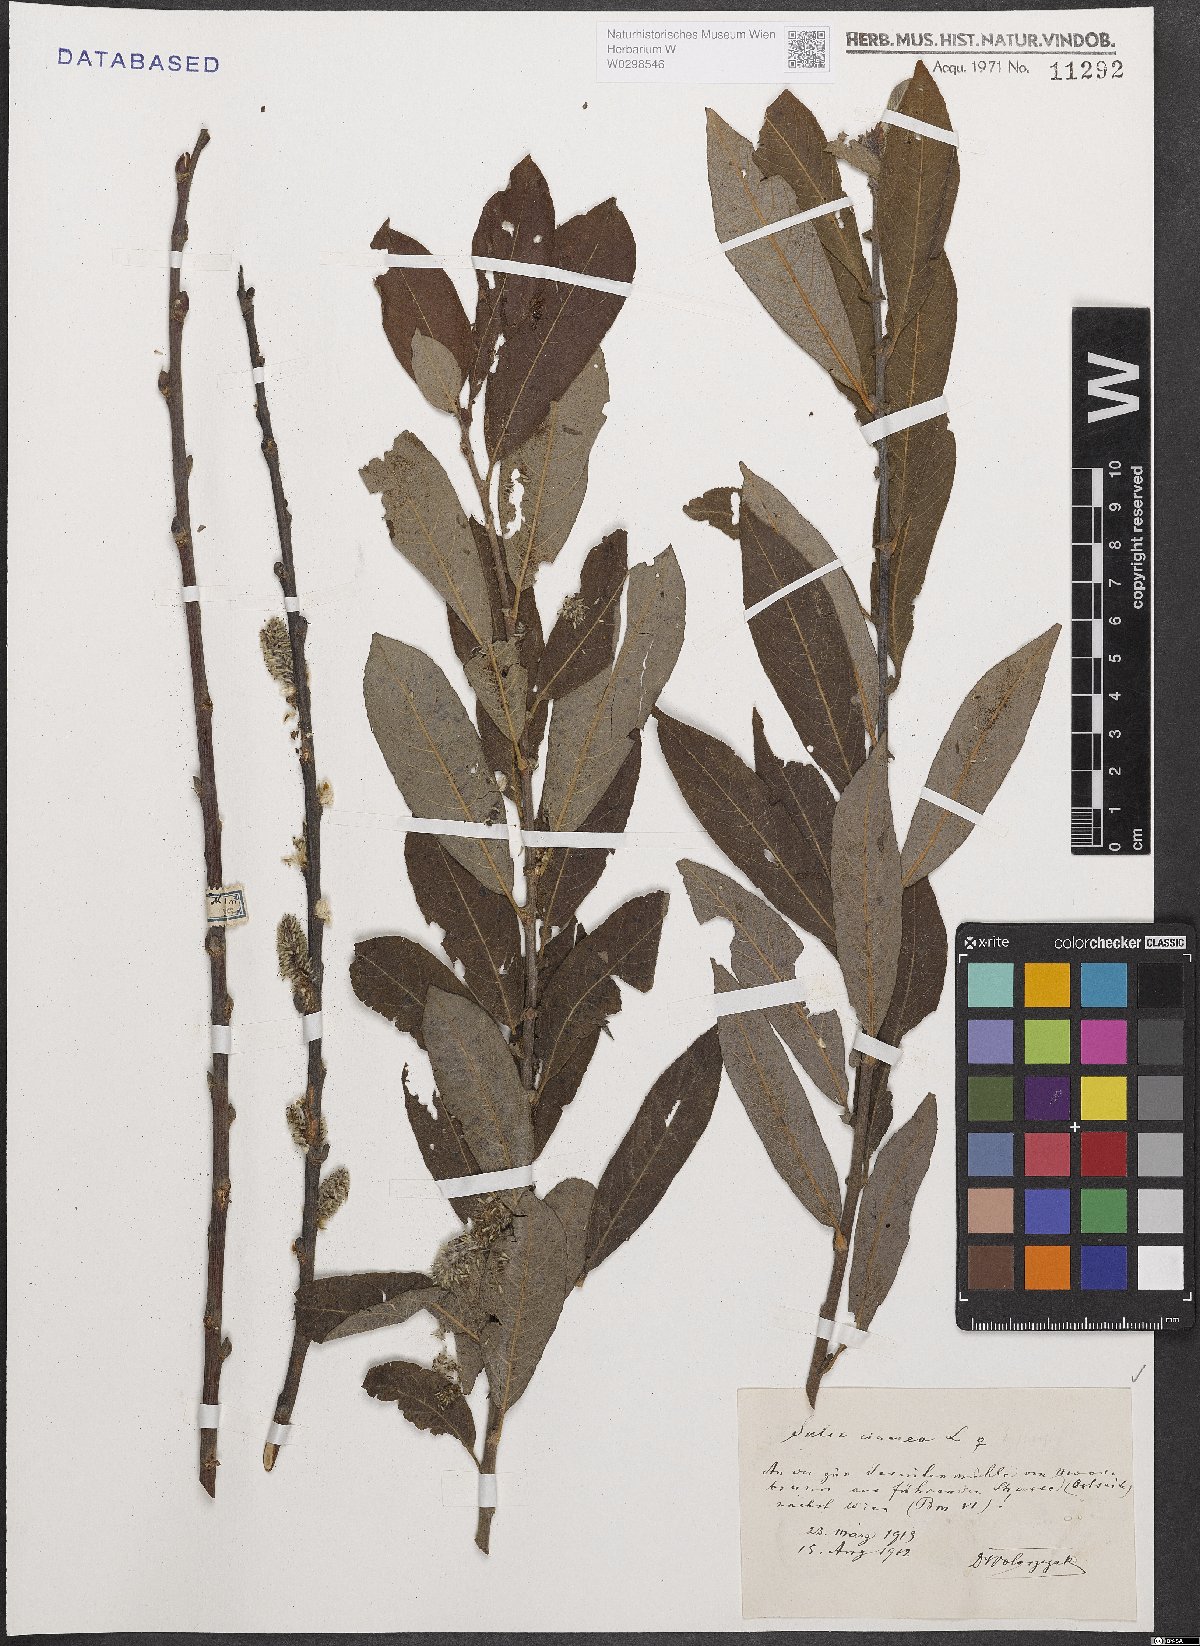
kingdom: Plantae
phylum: Tracheophyta
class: Magnoliopsida
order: Malpighiales
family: Salicaceae
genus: Salix
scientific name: Salix cinerea
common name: Common sallow
